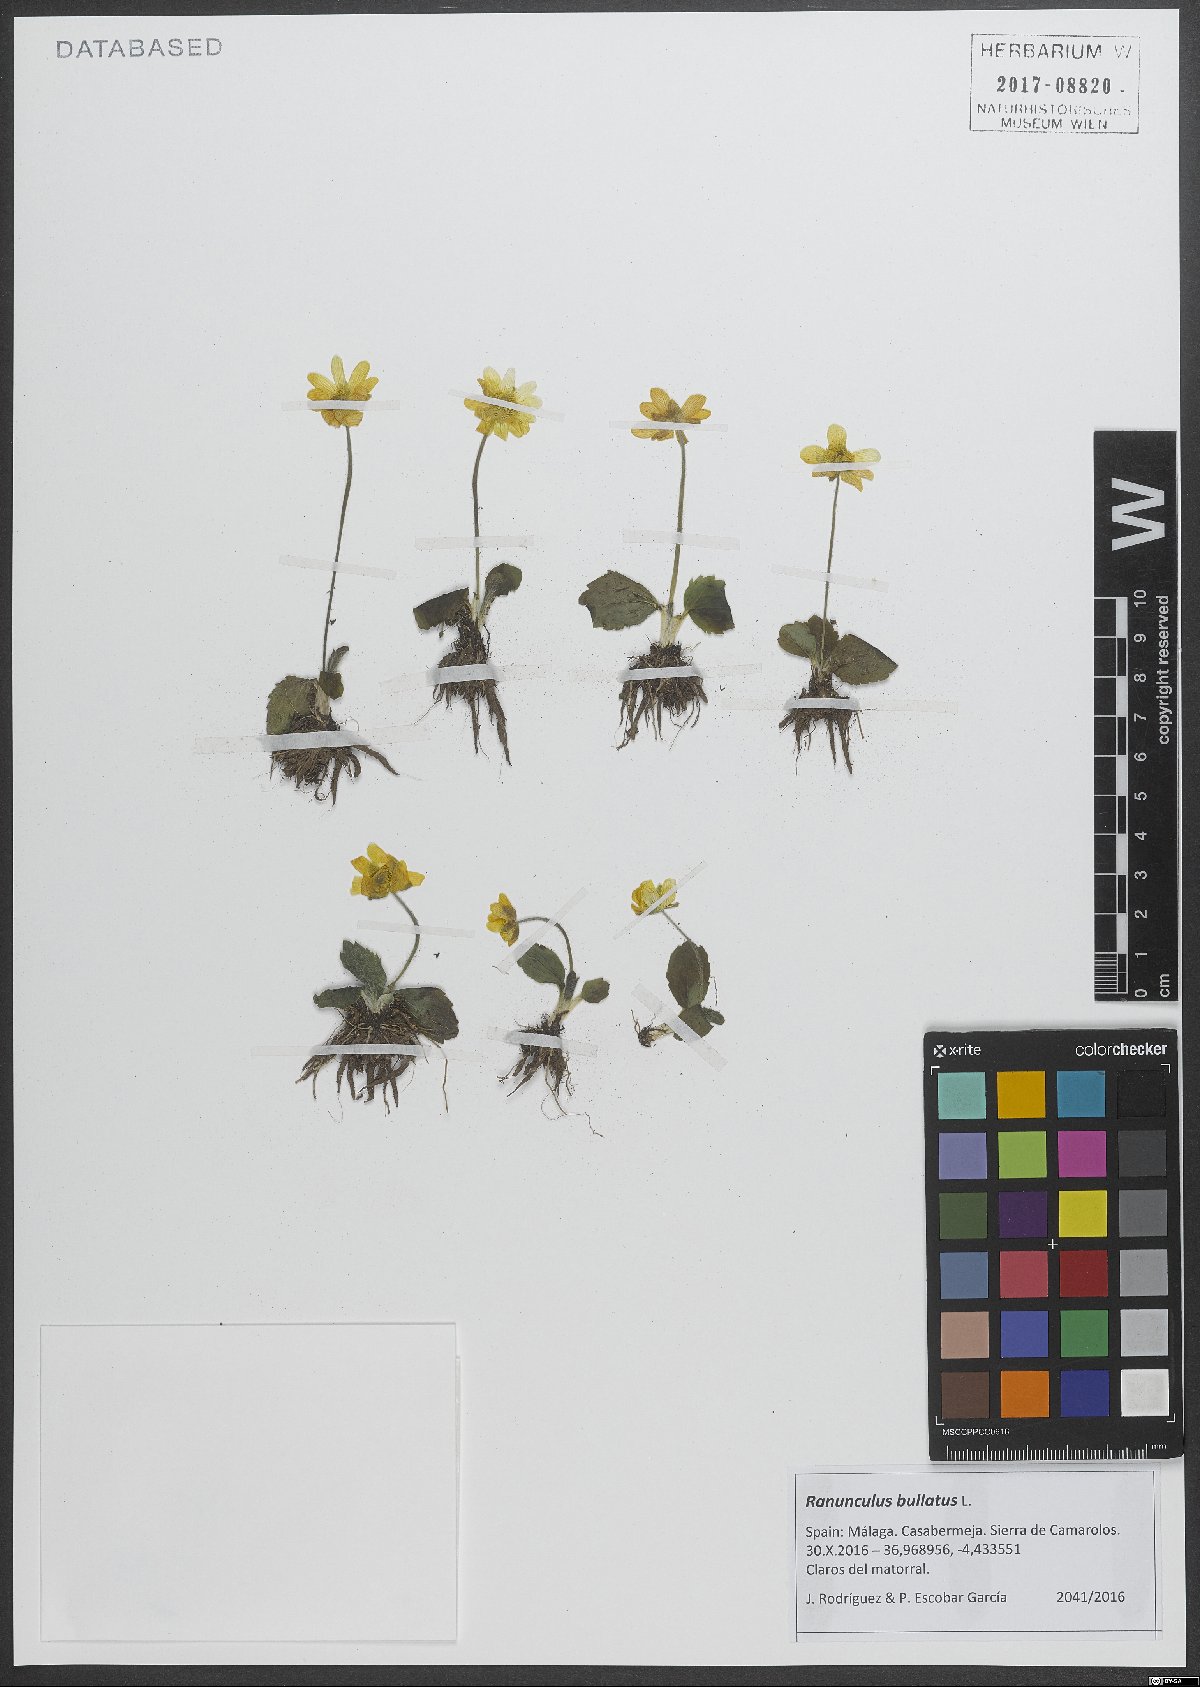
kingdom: Plantae
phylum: Tracheophyta
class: Magnoliopsida
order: Ranunculales
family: Ranunculaceae
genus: Ranunculus
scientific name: Ranunculus bullatus
